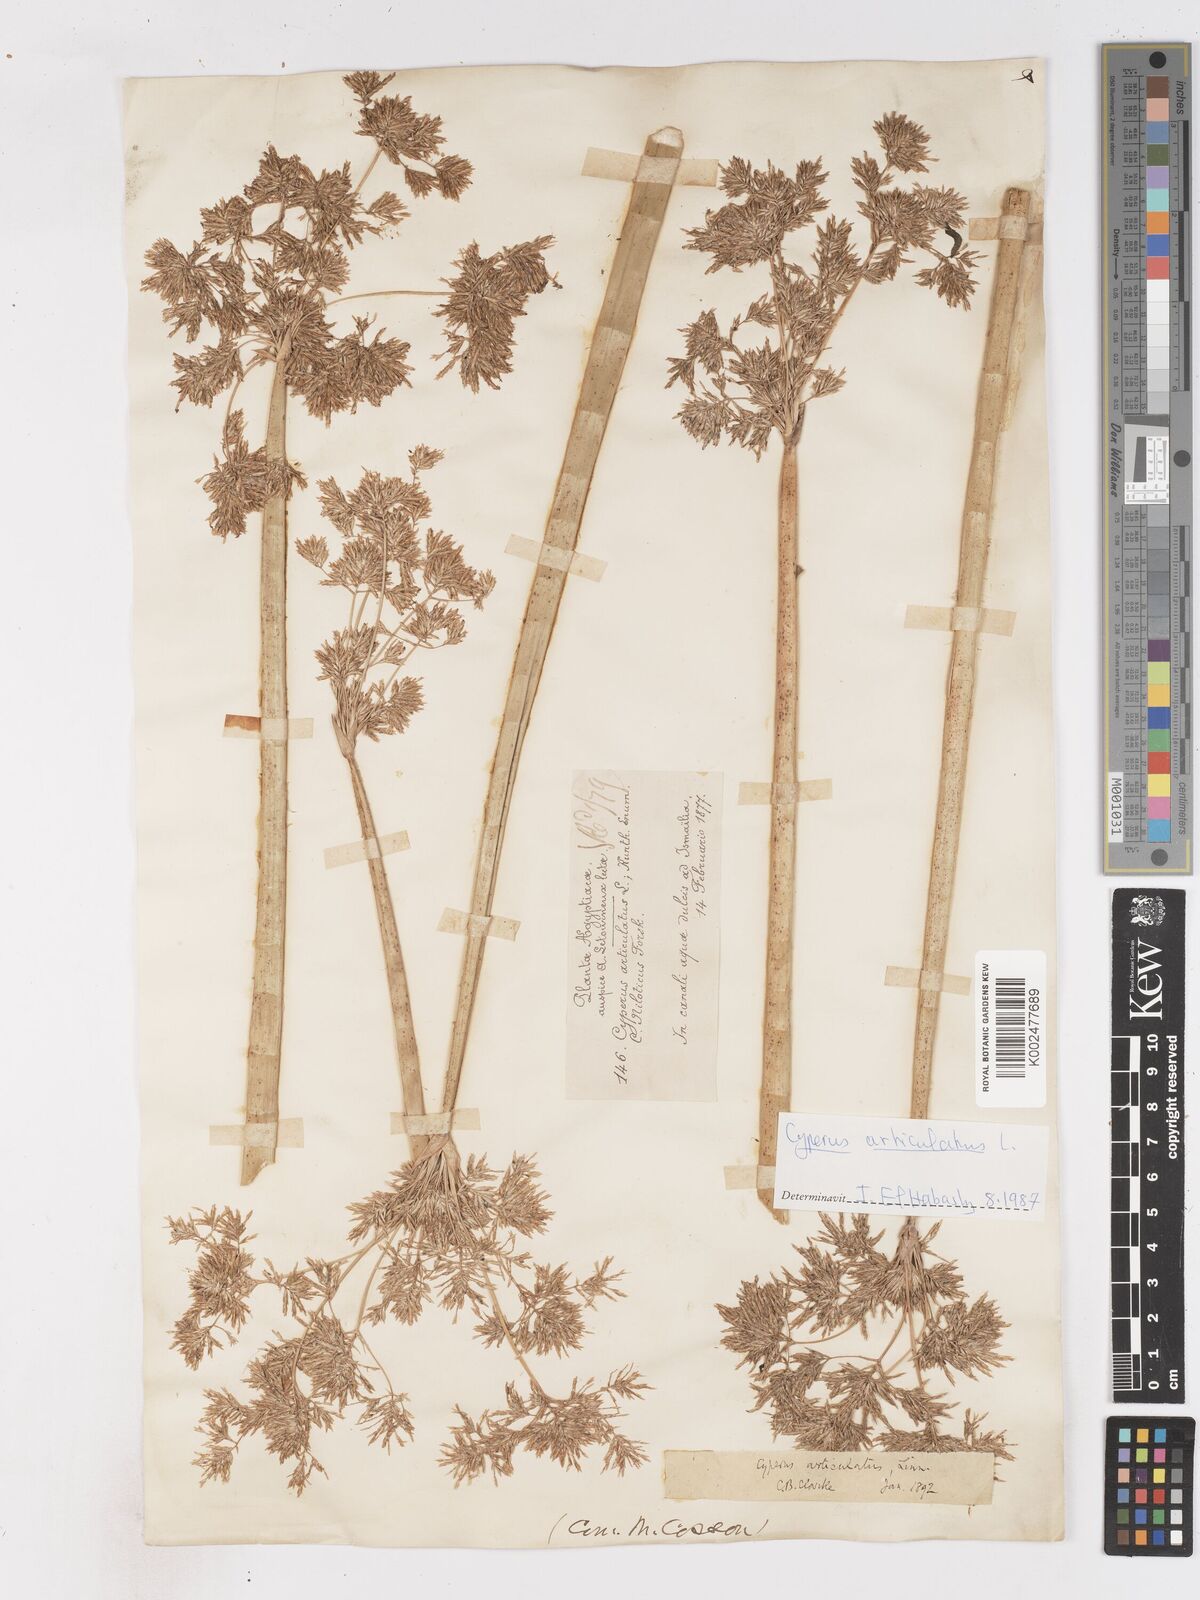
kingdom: Plantae
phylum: Tracheophyta
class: Liliopsida
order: Poales
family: Cyperaceae
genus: Cyperus
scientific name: Cyperus articulatus
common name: Jointed flatsedge
